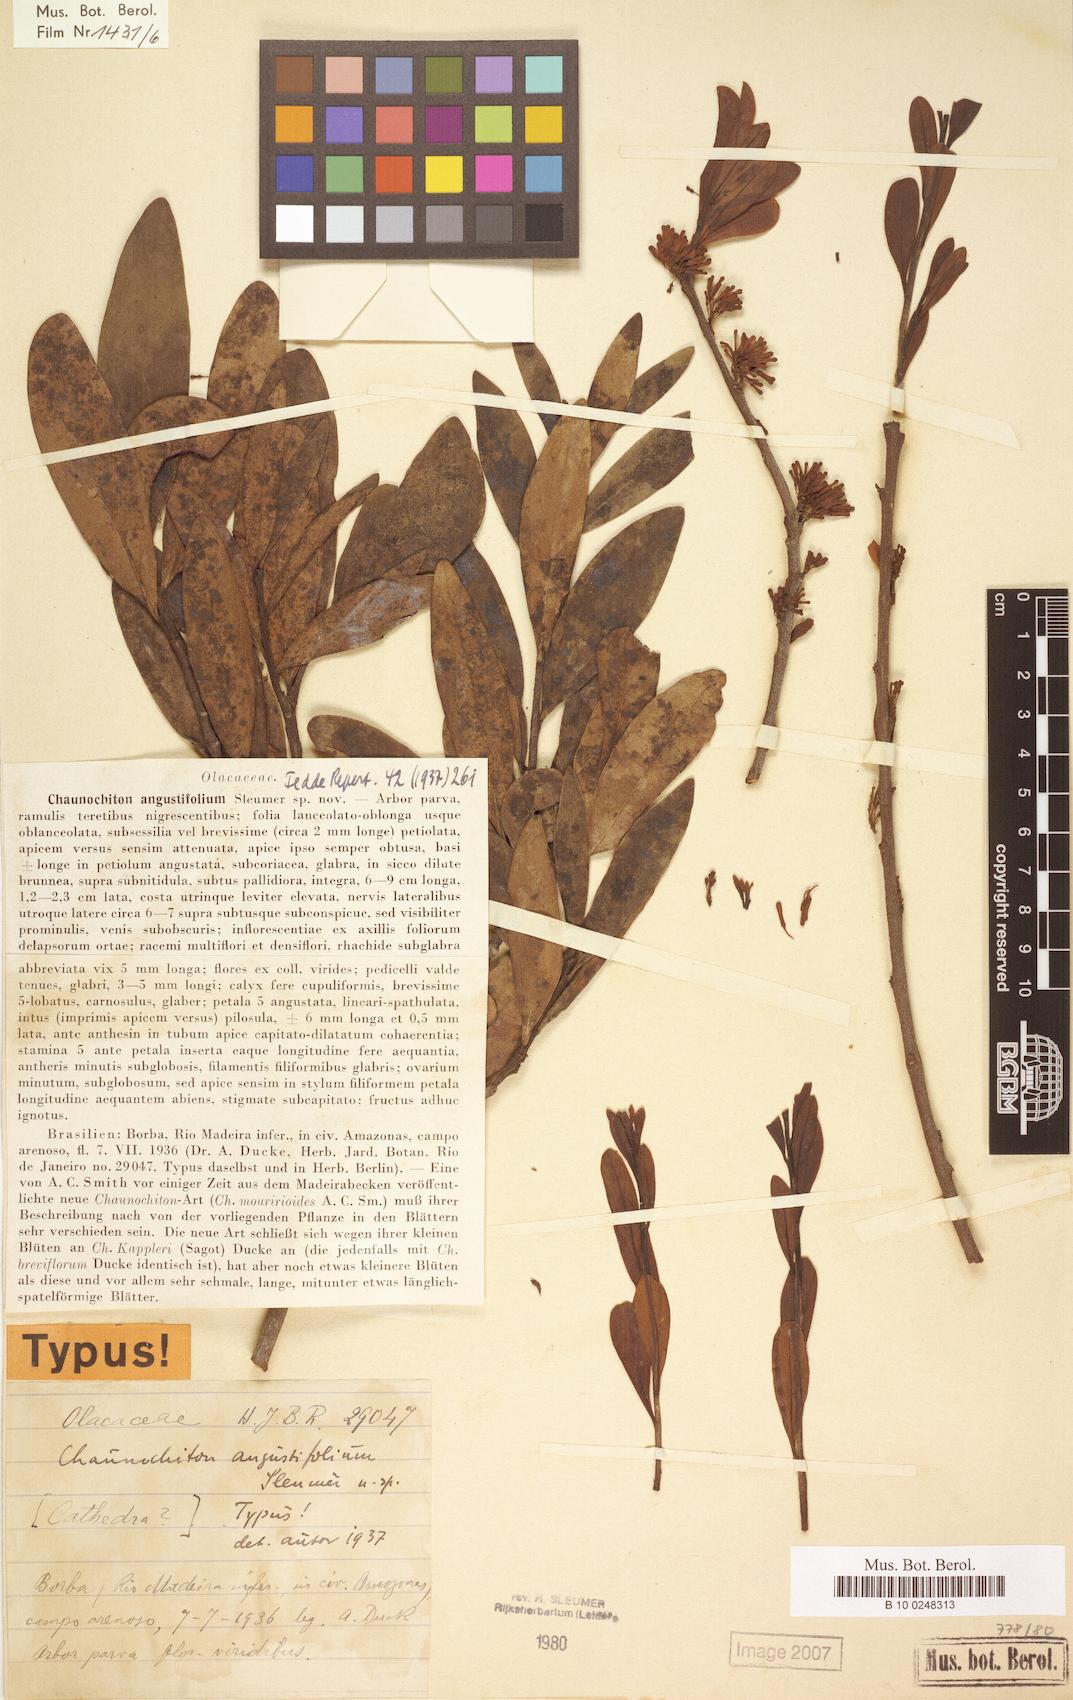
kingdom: Plantae
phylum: Tracheophyta
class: Magnoliopsida
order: Santalales
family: Aptandraceae
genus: Chaunochiton
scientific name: Chaunochiton angustifolium
